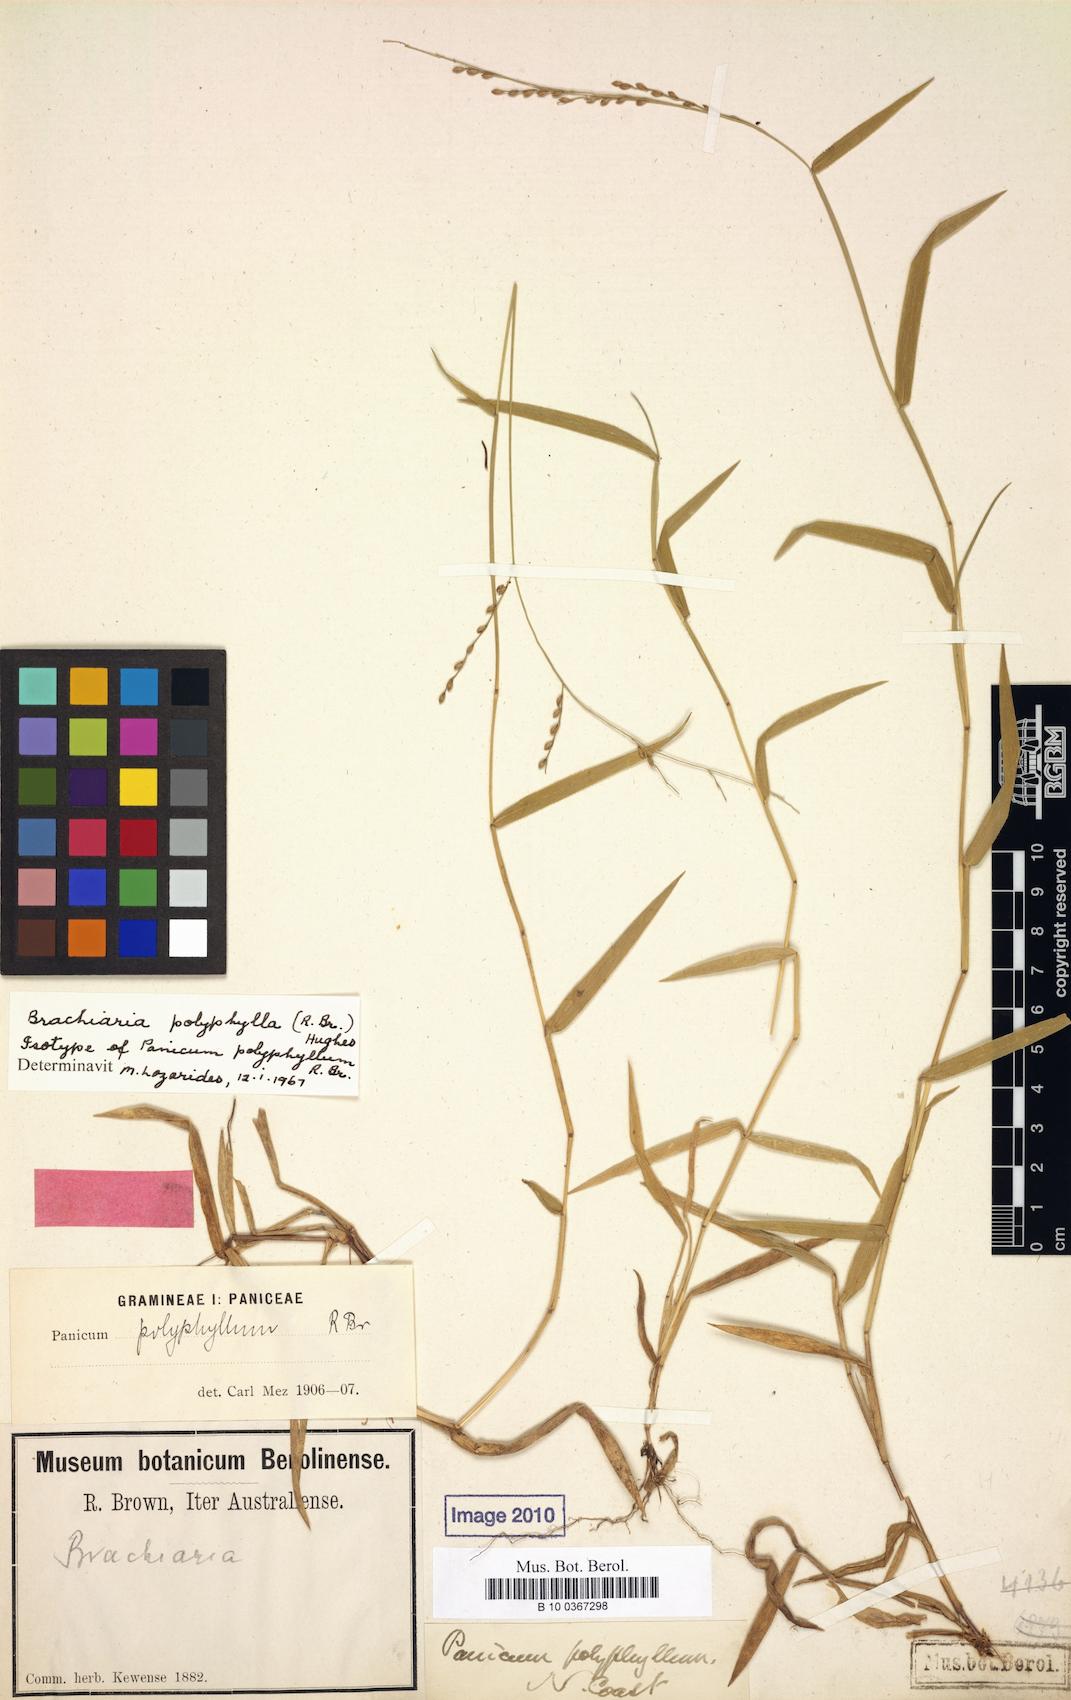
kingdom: Plantae
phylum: Tracheophyta
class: Liliopsida
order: Poales
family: Poaceae
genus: Urochloa
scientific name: Urochloa polyphylla
